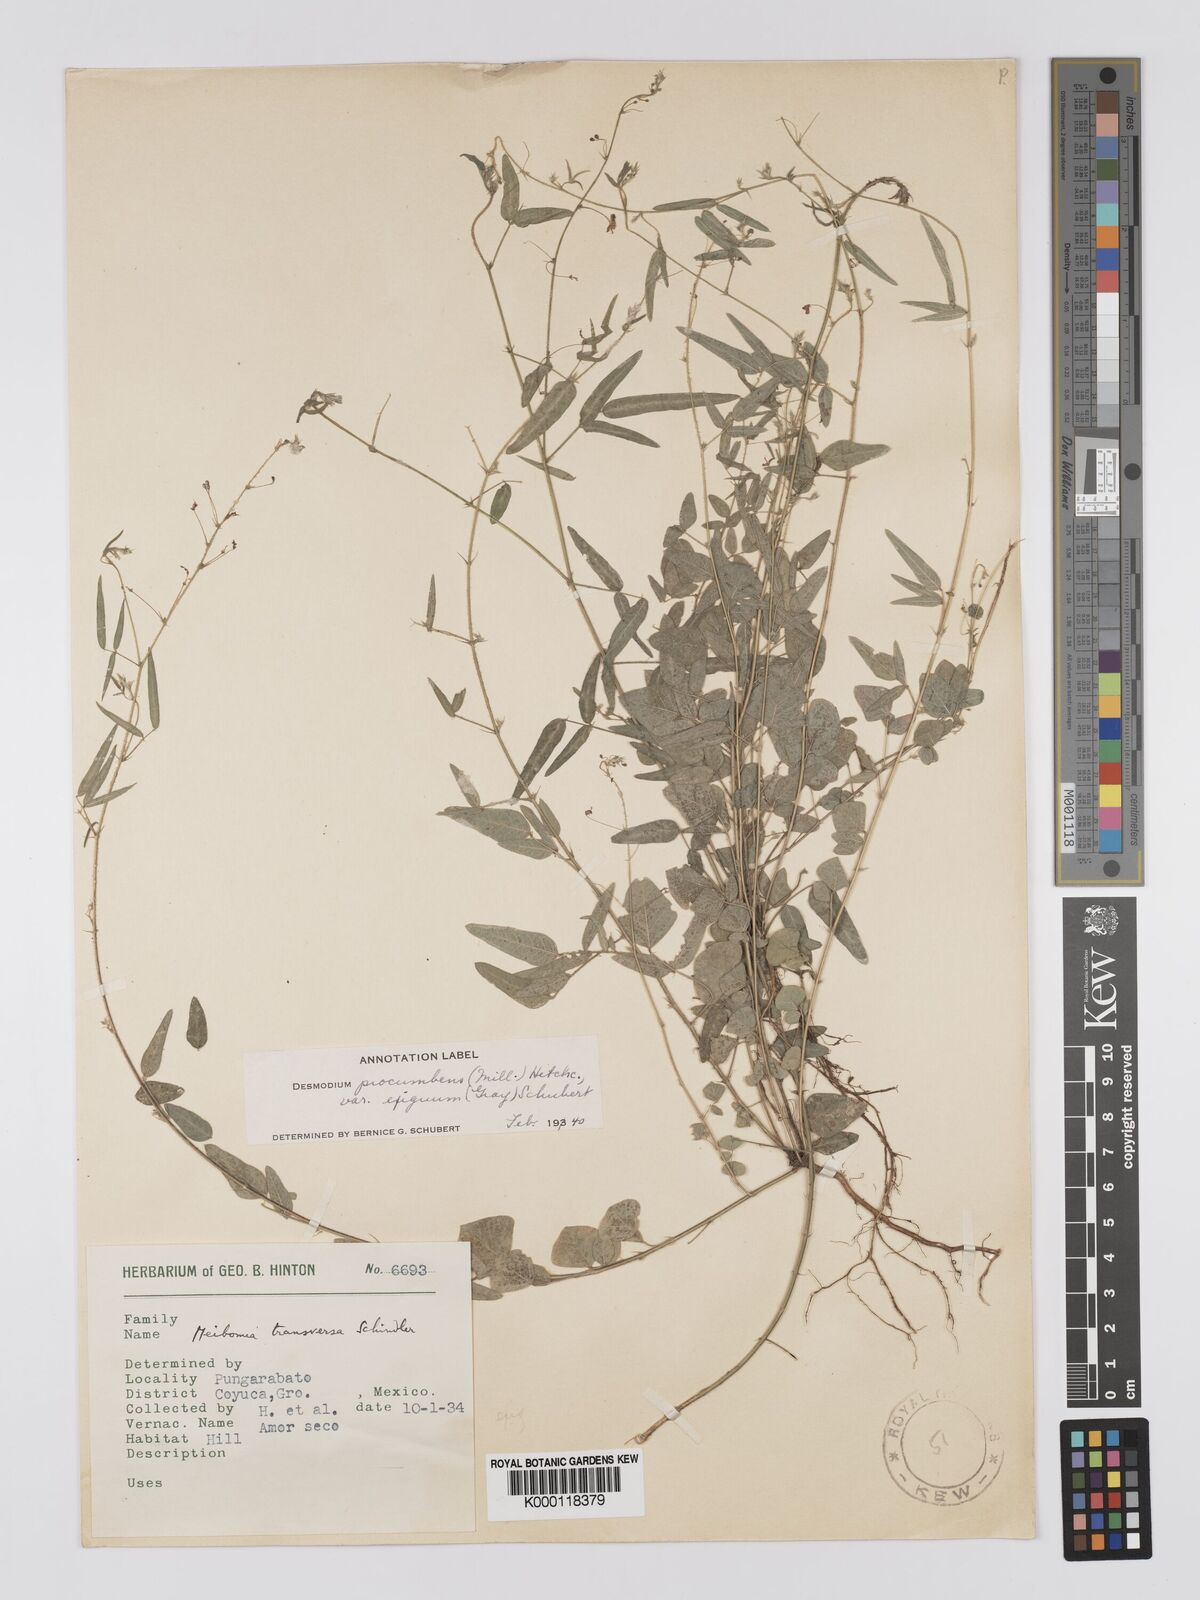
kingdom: Plantae
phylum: Tracheophyta
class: Magnoliopsida
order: Fabales
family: Fabaceae
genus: Desmodium
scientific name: Desmodium procumbens
